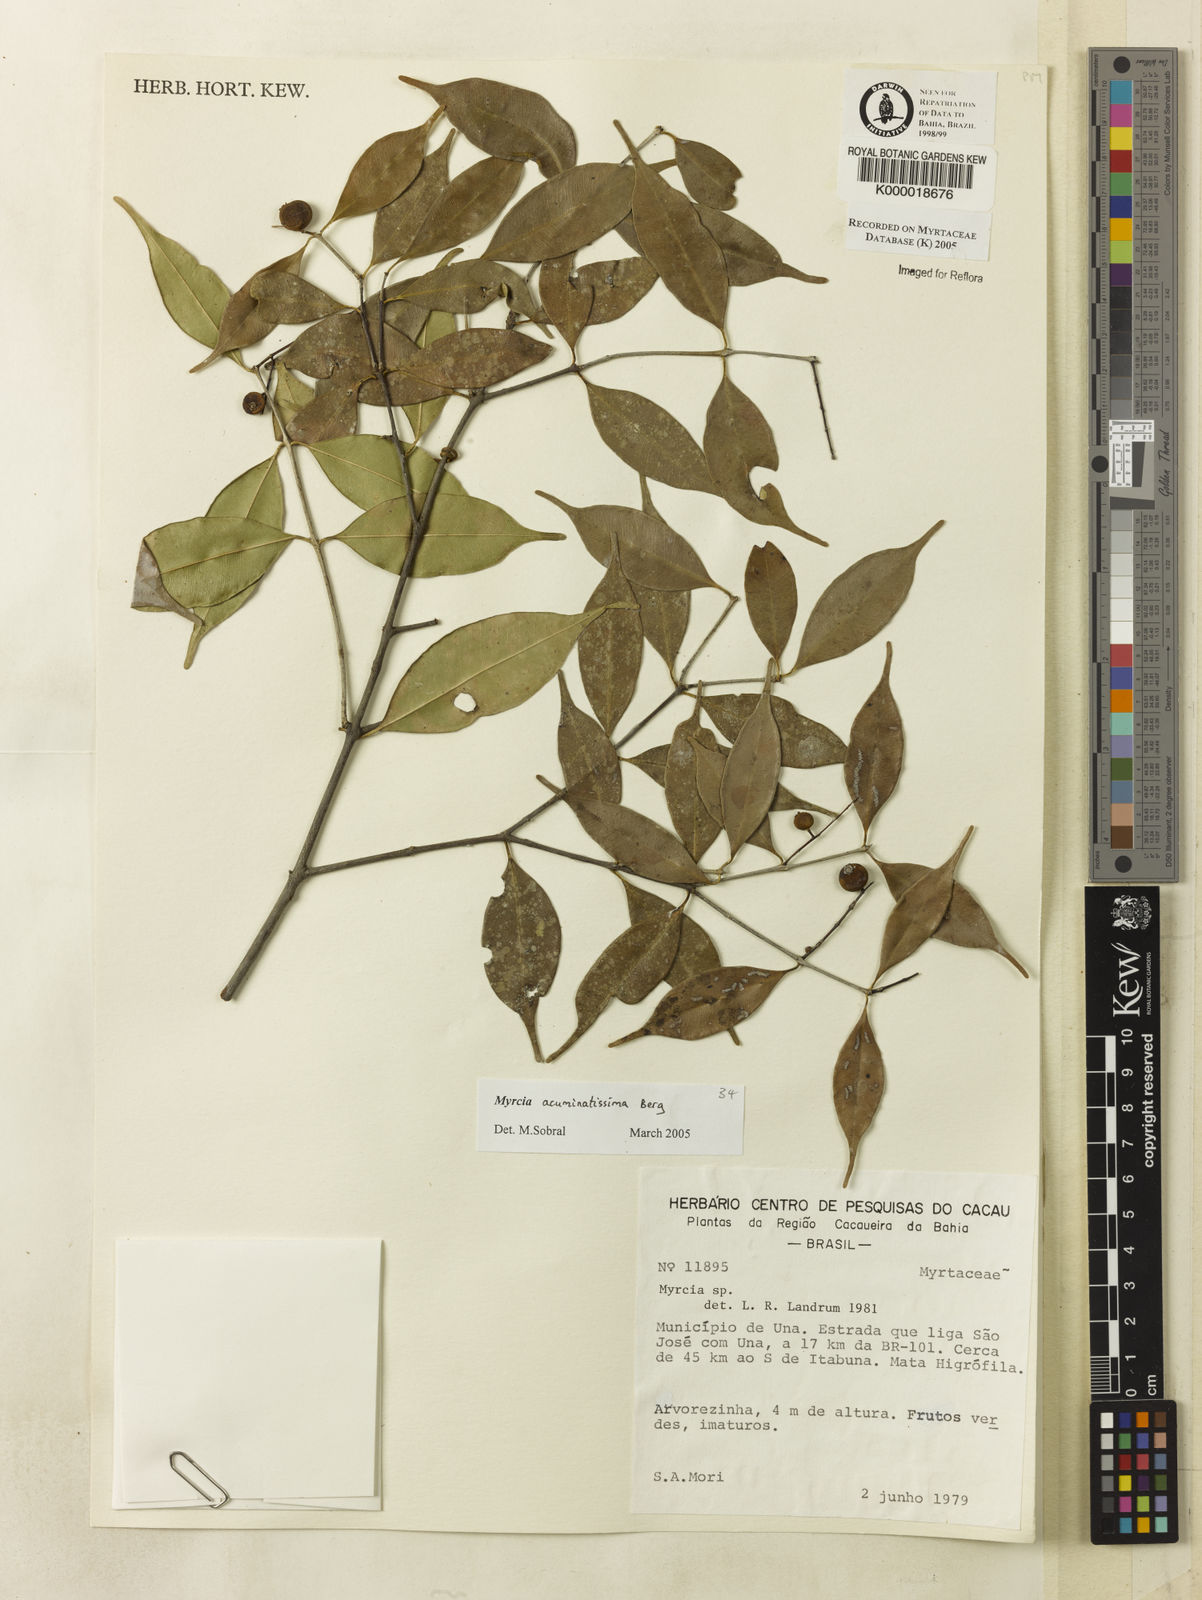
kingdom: Plantae
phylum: Tracheophyta
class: Magnoliopsida
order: Myrtales
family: Myrtaceae
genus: Myrcia
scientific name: Myrcia
